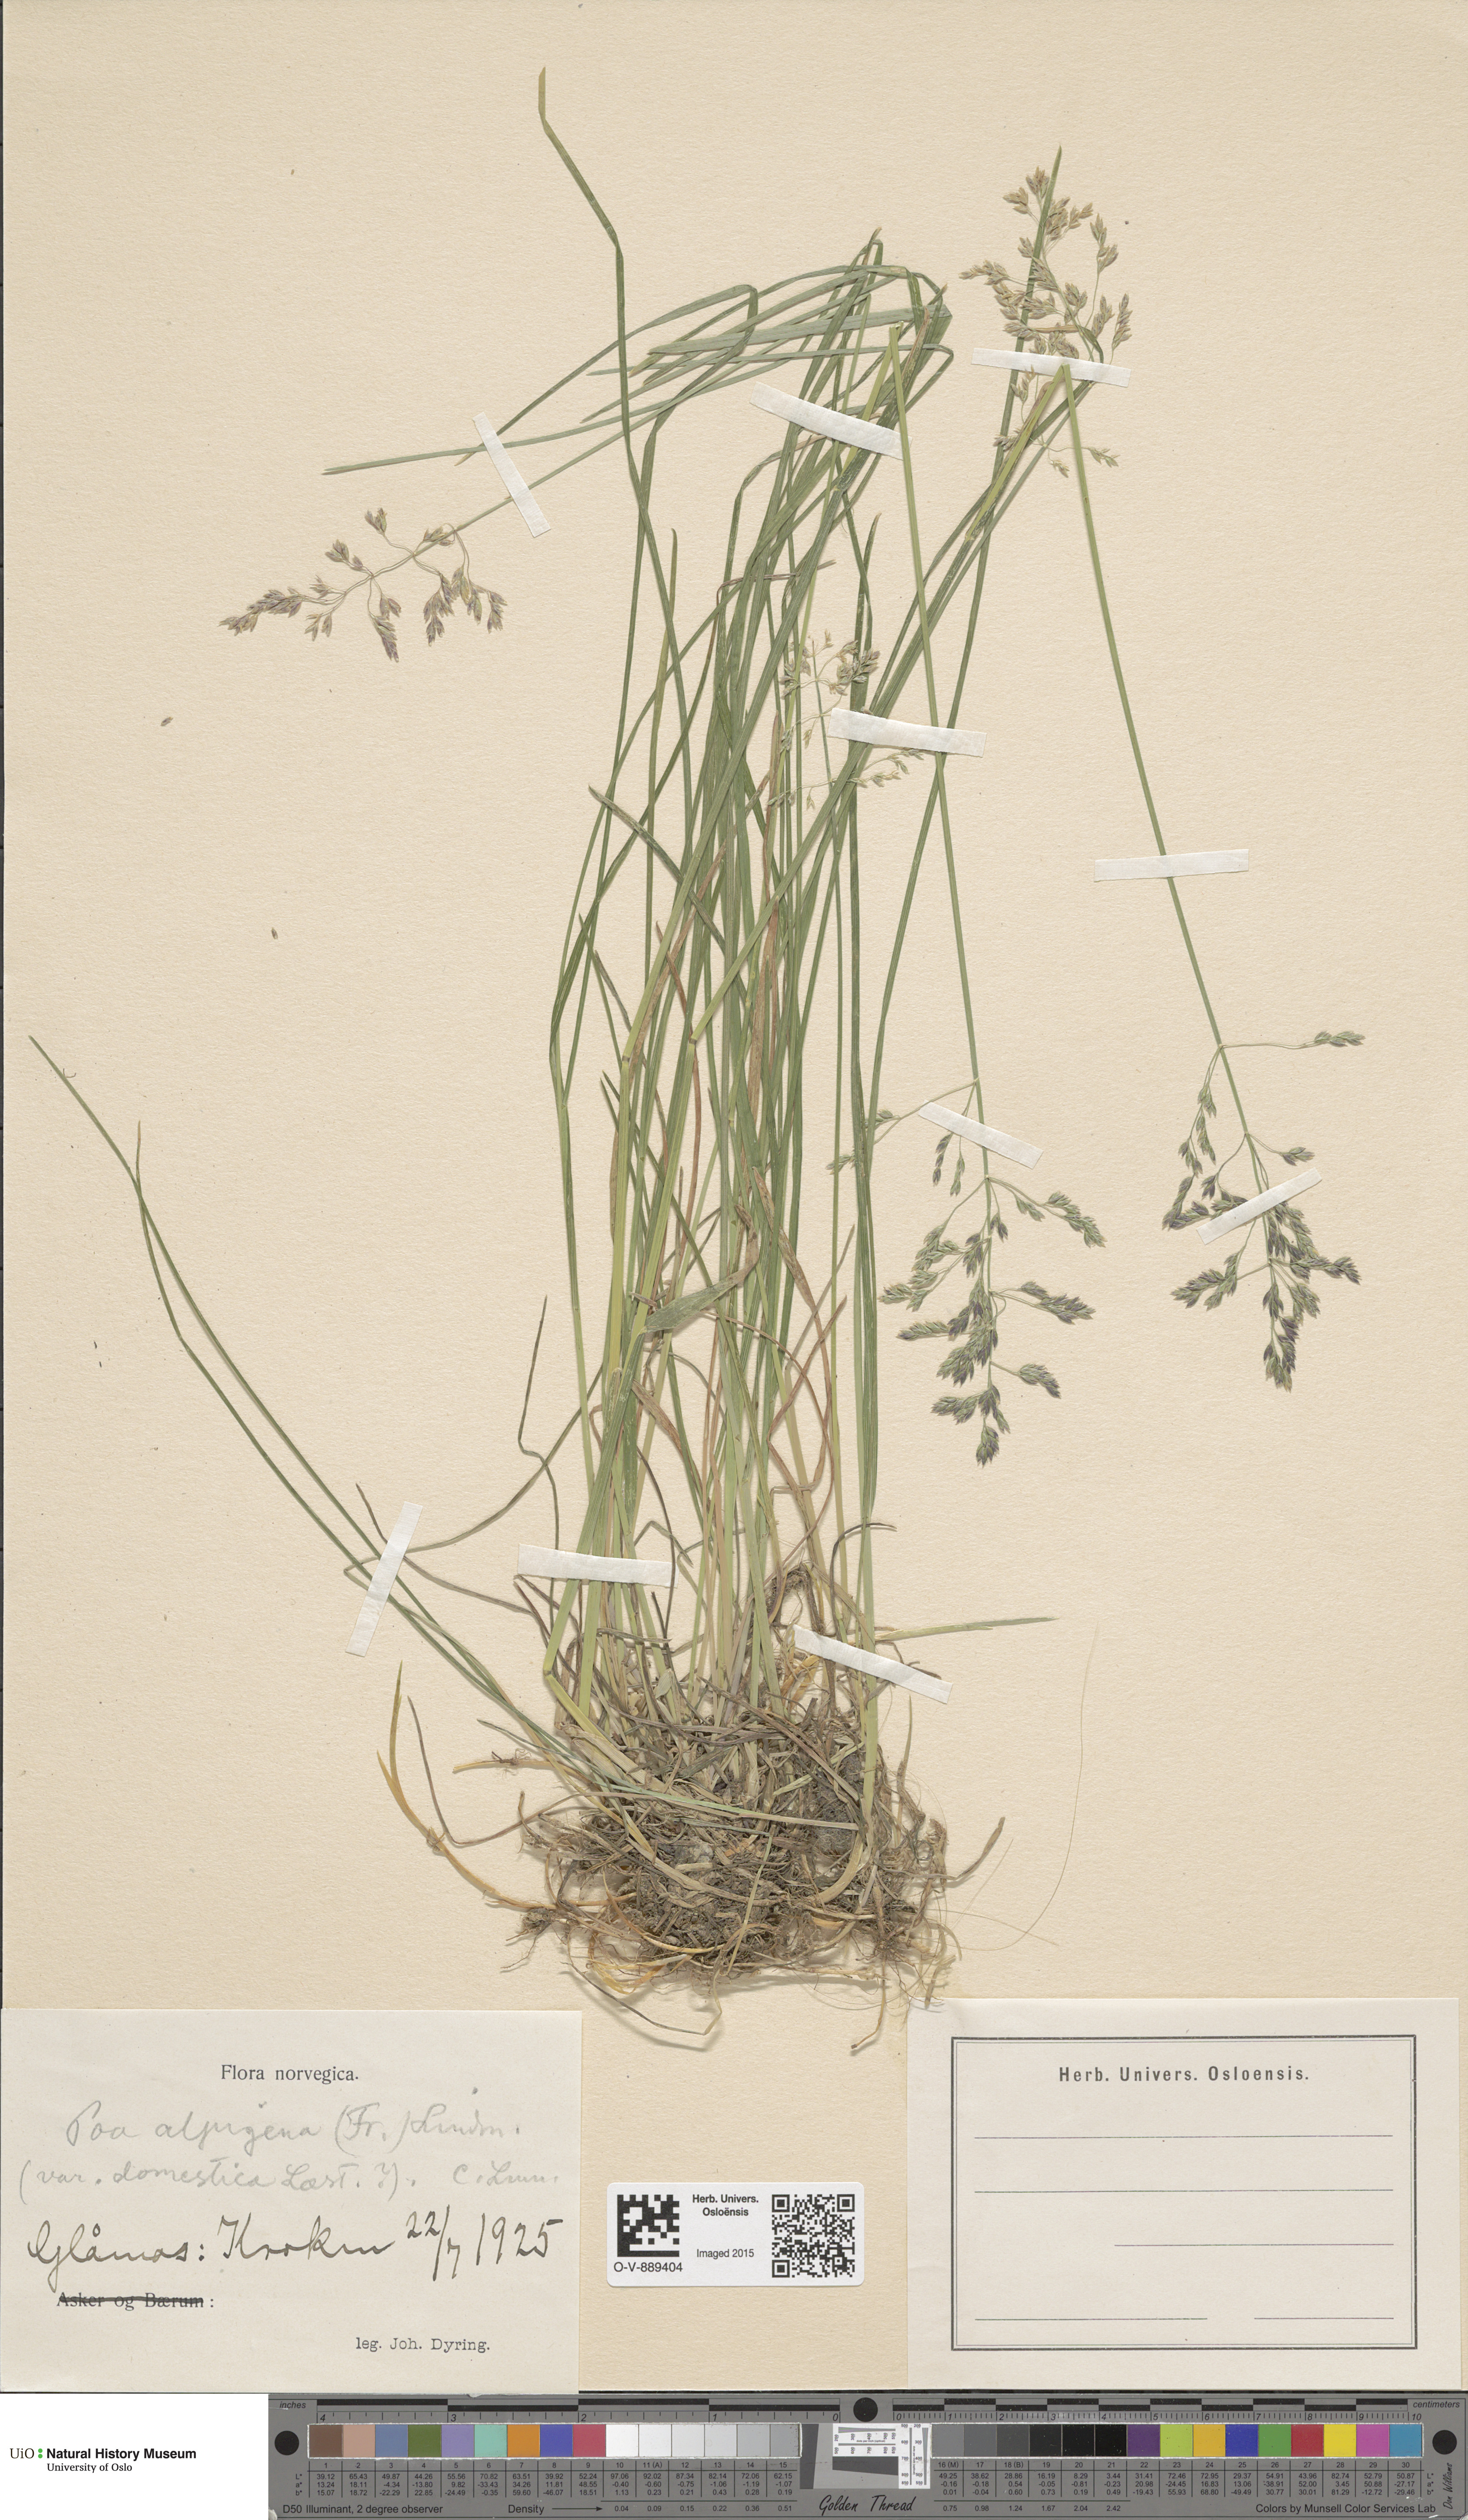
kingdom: Plantae
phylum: Tracheophyta
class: Liliopsida
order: Poales
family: Poaceae
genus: Poa
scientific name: Poa pratensis
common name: Kentucky bluegrass
